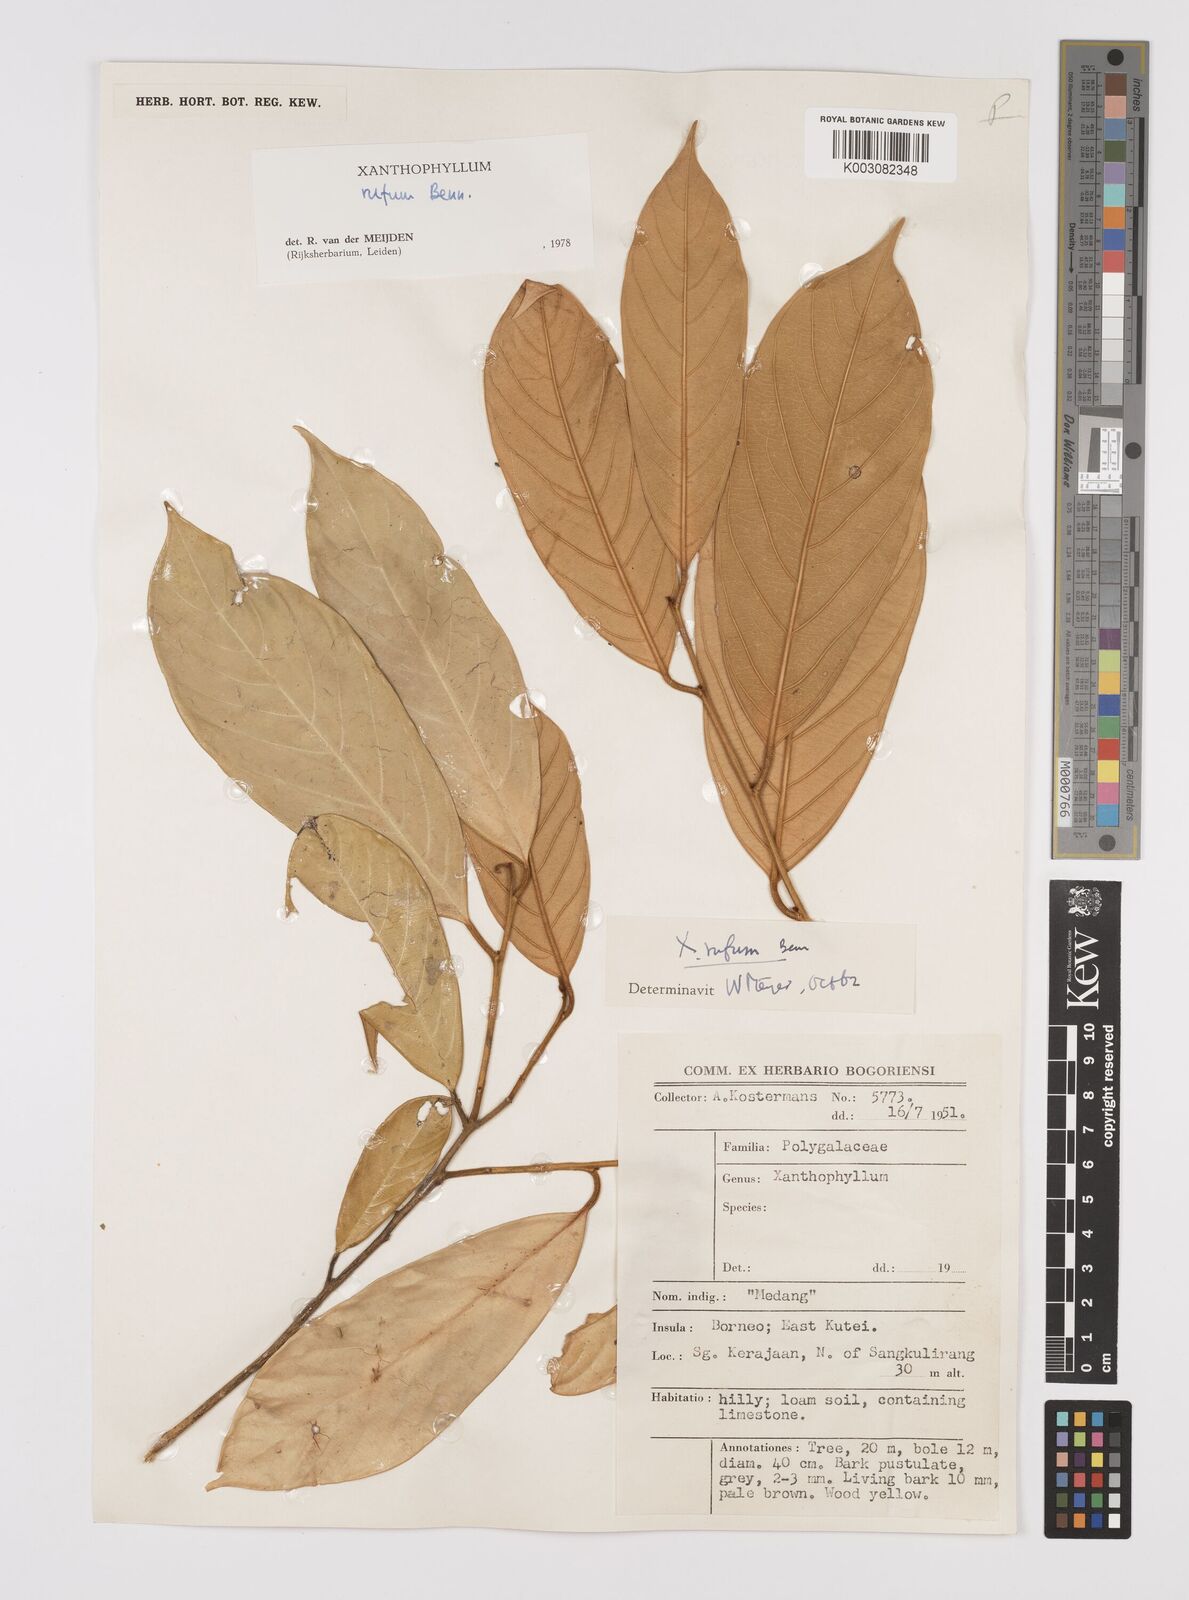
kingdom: Plantae
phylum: Tracheophyta
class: Magnoliopsida
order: Fabales
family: Polygalaceae
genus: Xanthophyllum
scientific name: Xanthophyllum rufum
